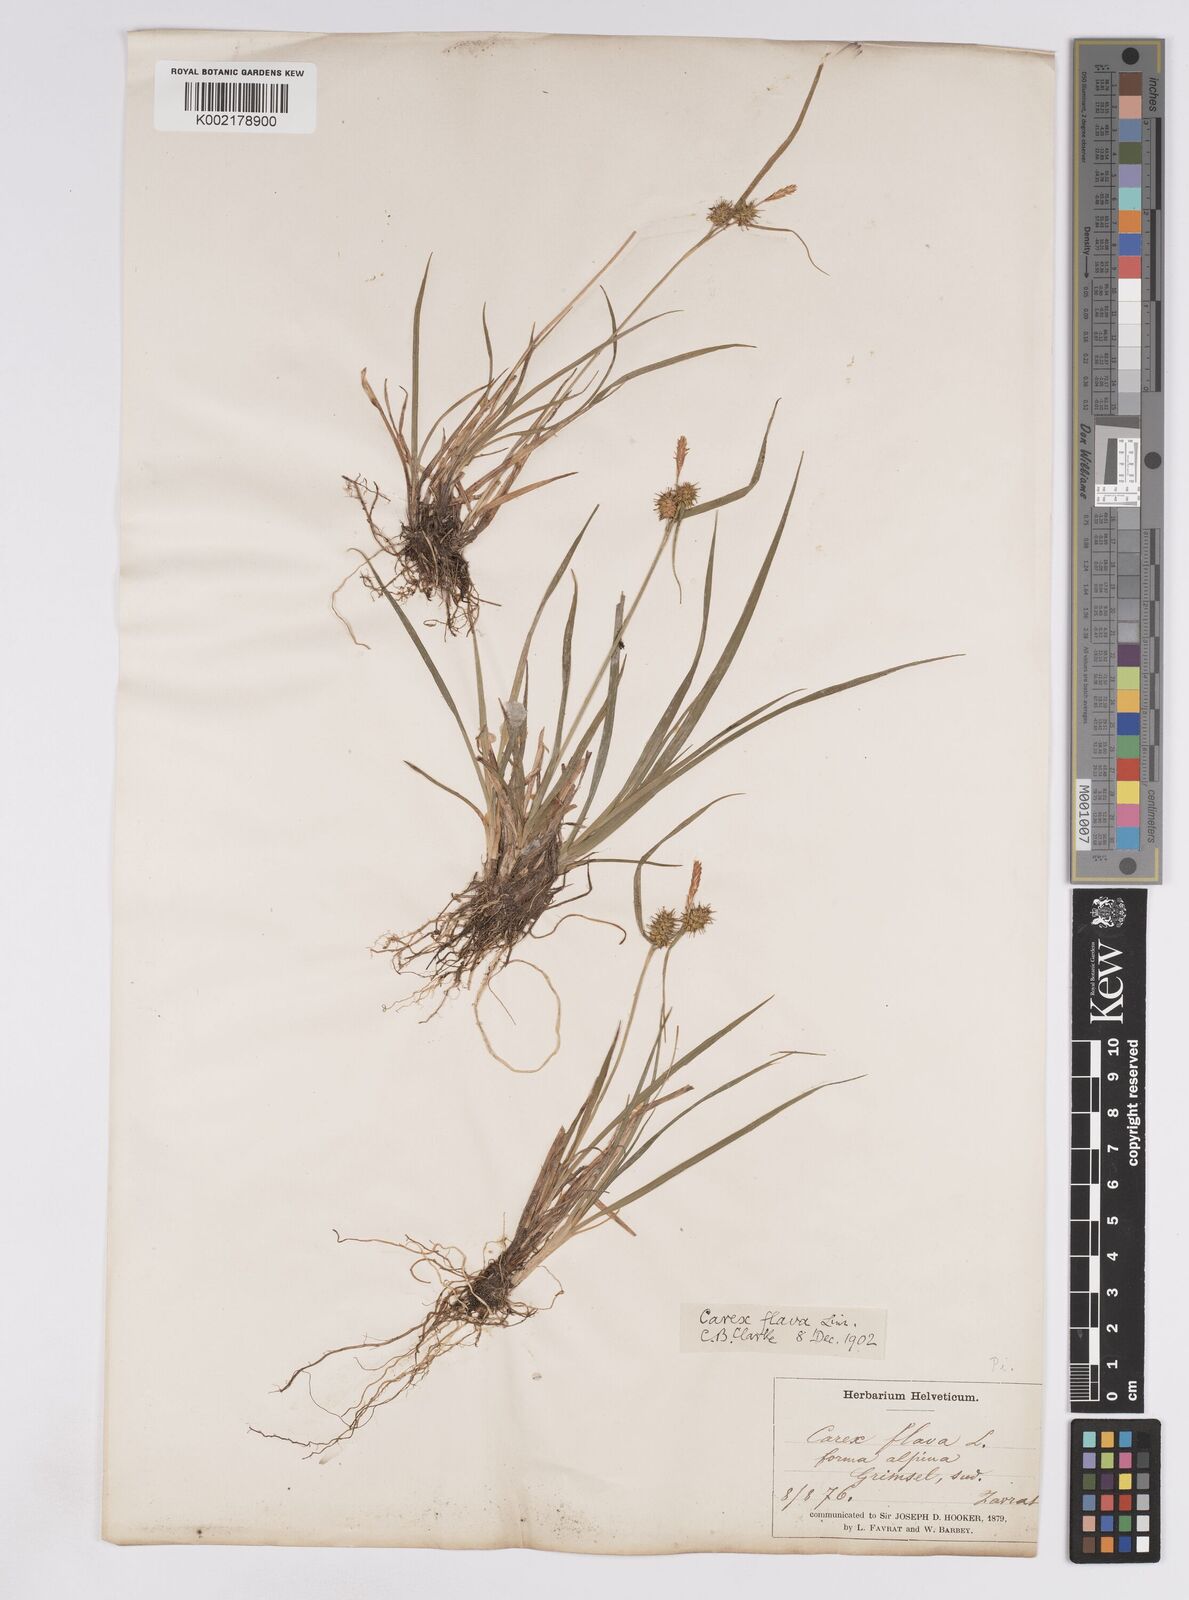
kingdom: Plantae
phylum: Tracheophyta
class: Liliopsida
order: Poales
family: Cyperaceae
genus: Carex
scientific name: Carex lepidocarpa
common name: Long-stalked yellow-sedge
